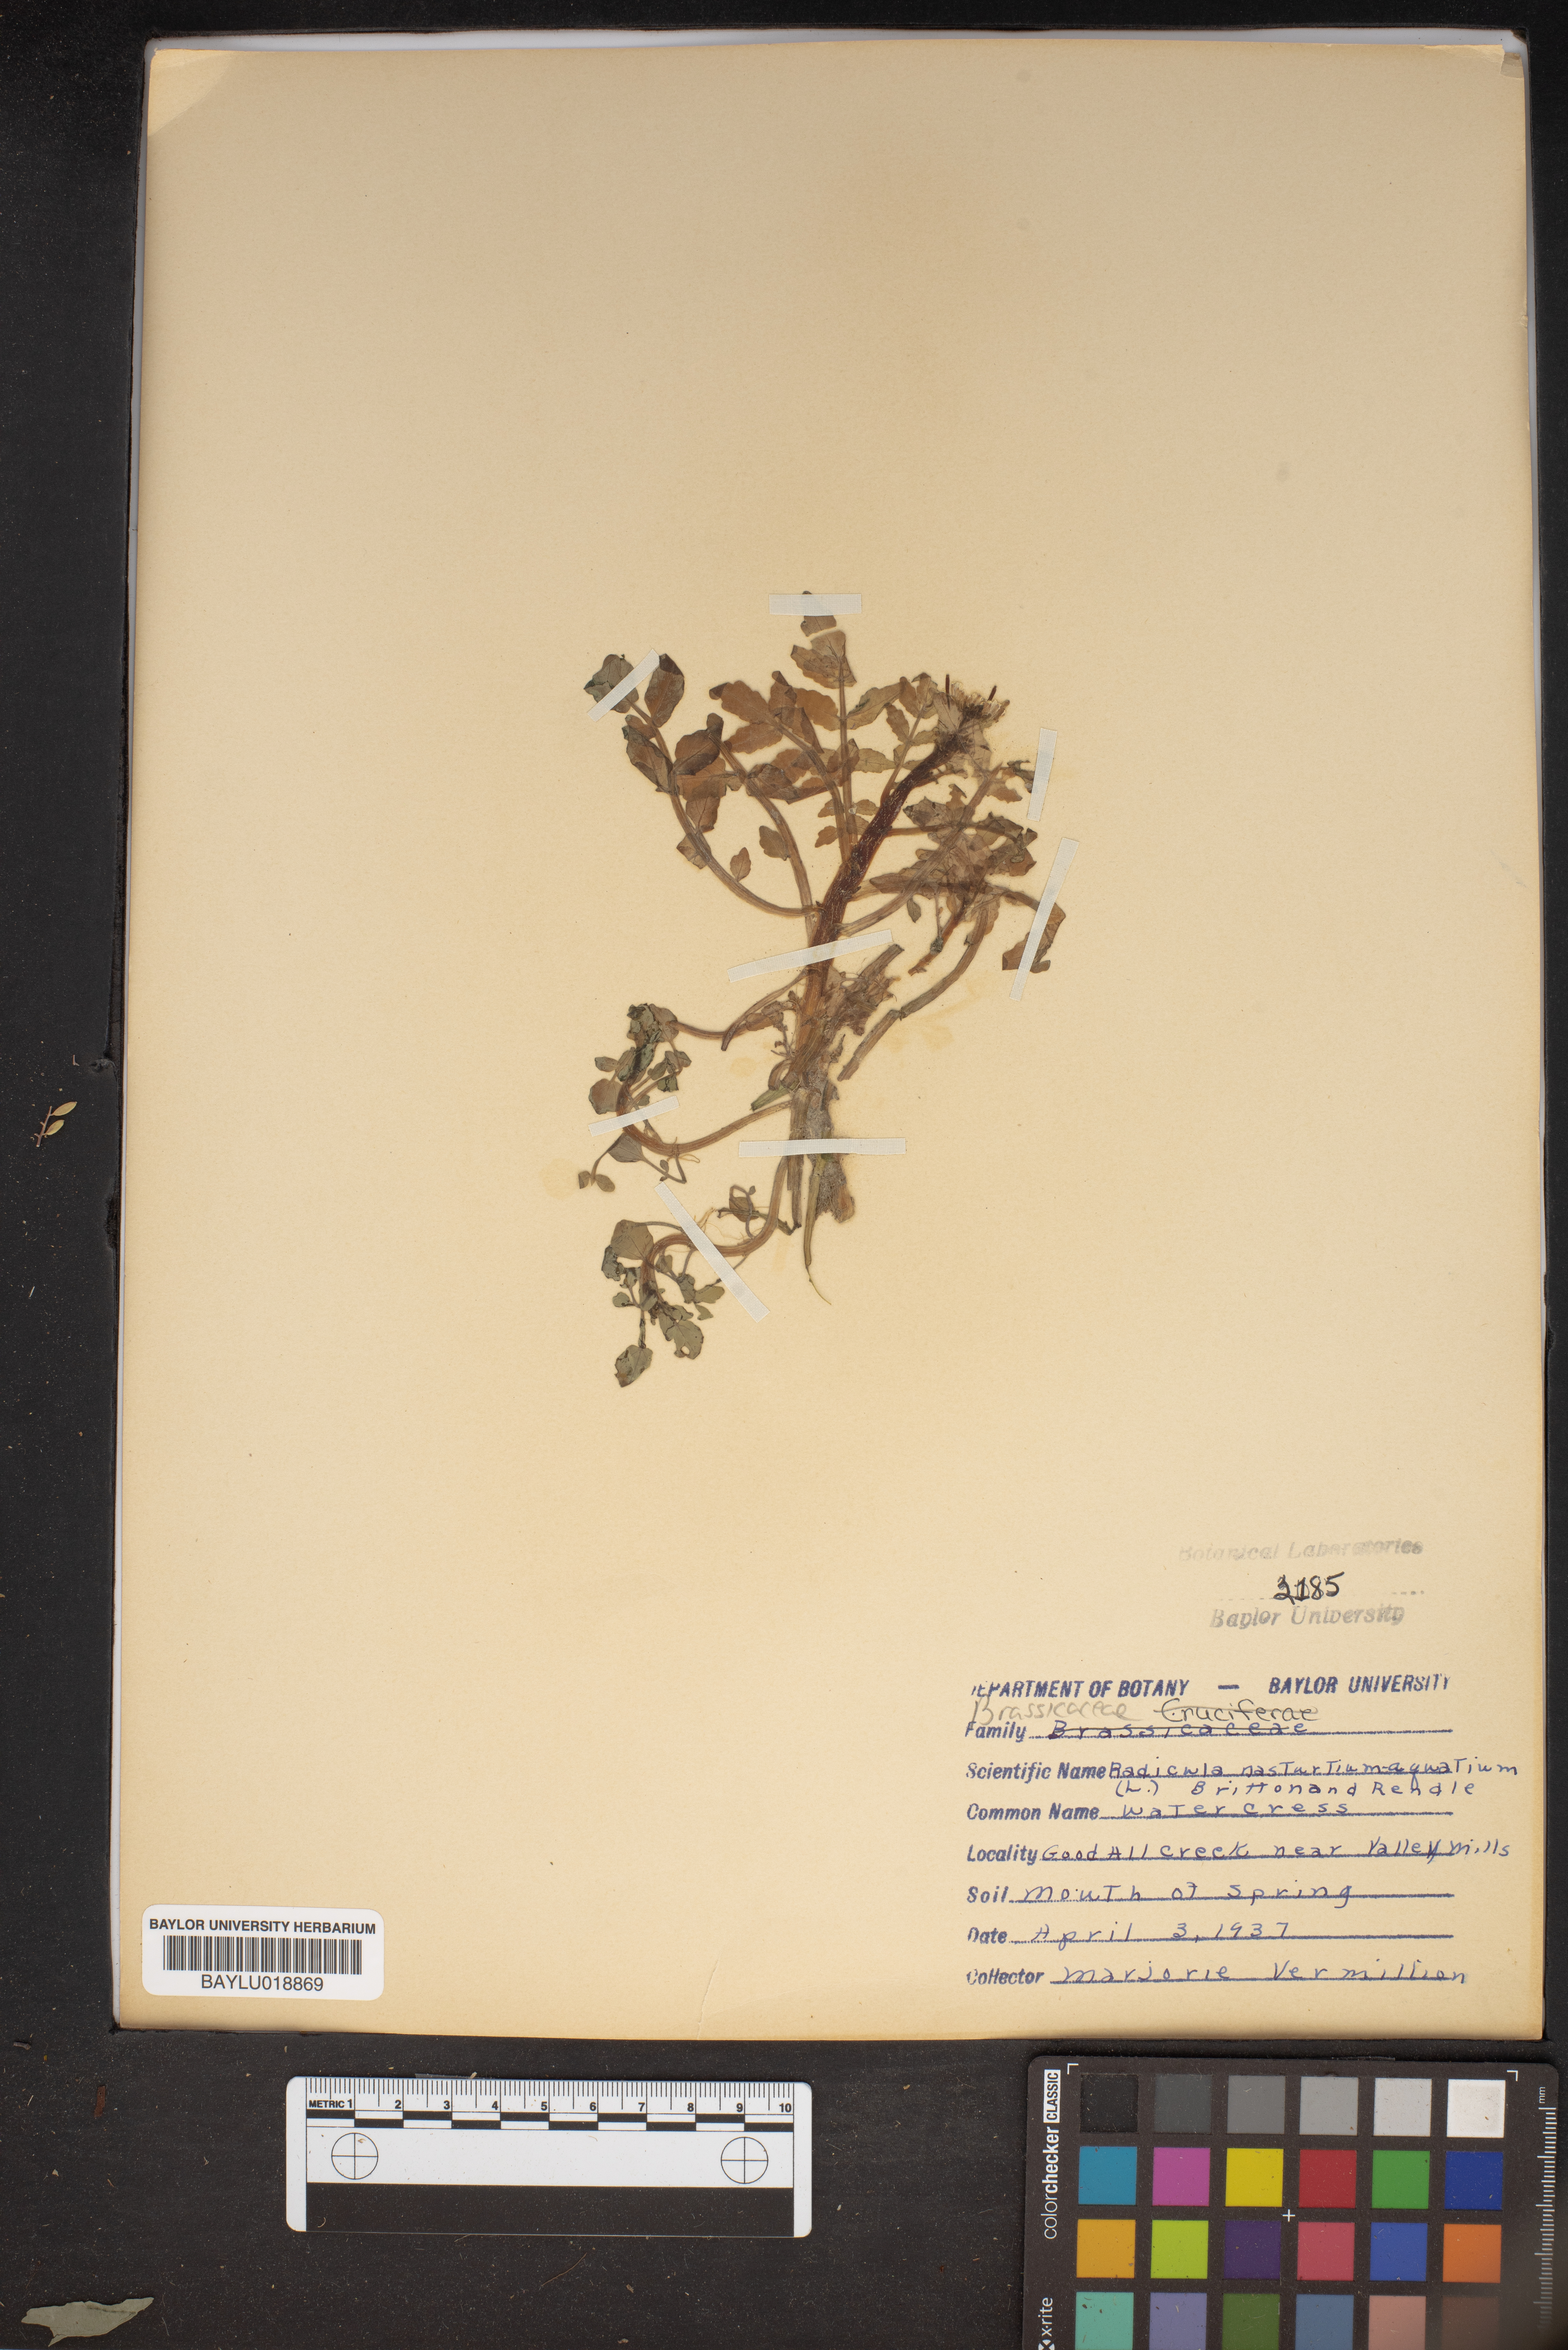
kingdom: Plantae
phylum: Tracheophyta
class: Magnoliopsida
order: Brassicales
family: Brassicaceae
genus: Nasturtium
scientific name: Nasturtium officinale
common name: Watercress
